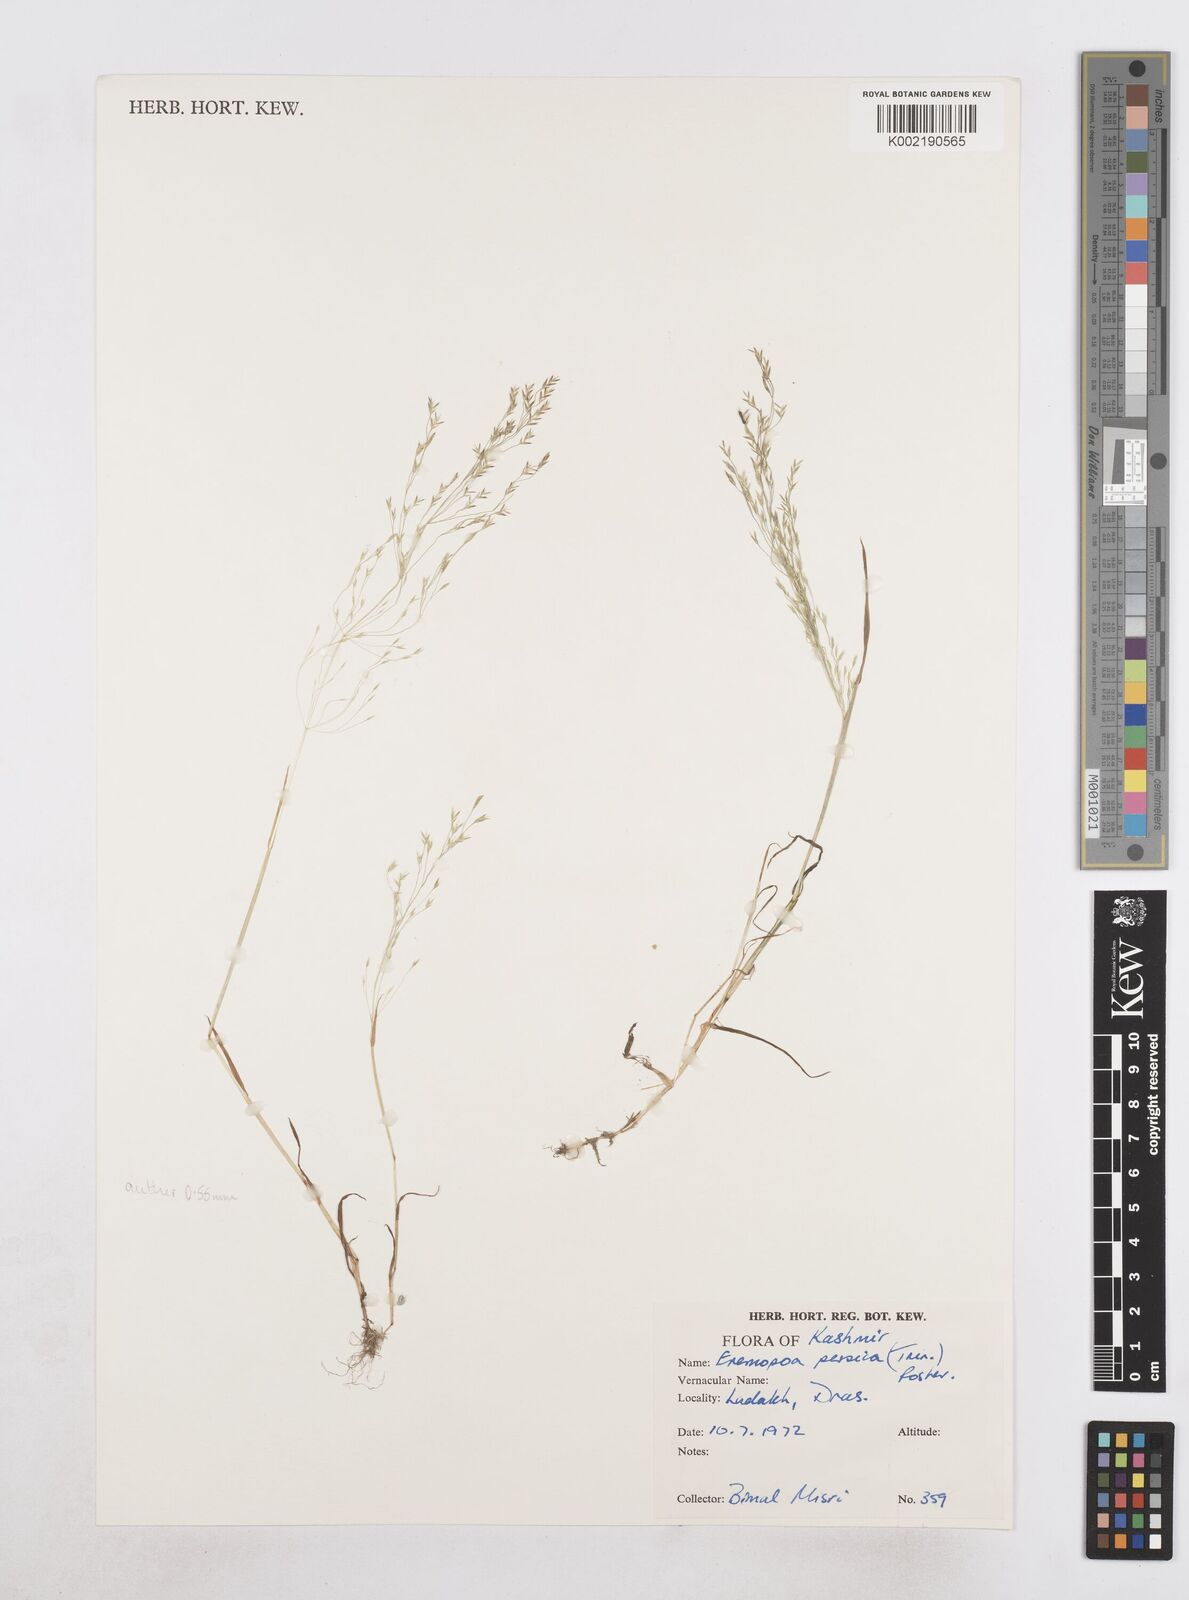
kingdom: Plantae
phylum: Tracheophyta
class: Liliopsida
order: Poales
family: Poaceae
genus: Poa
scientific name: Poa diaphora
